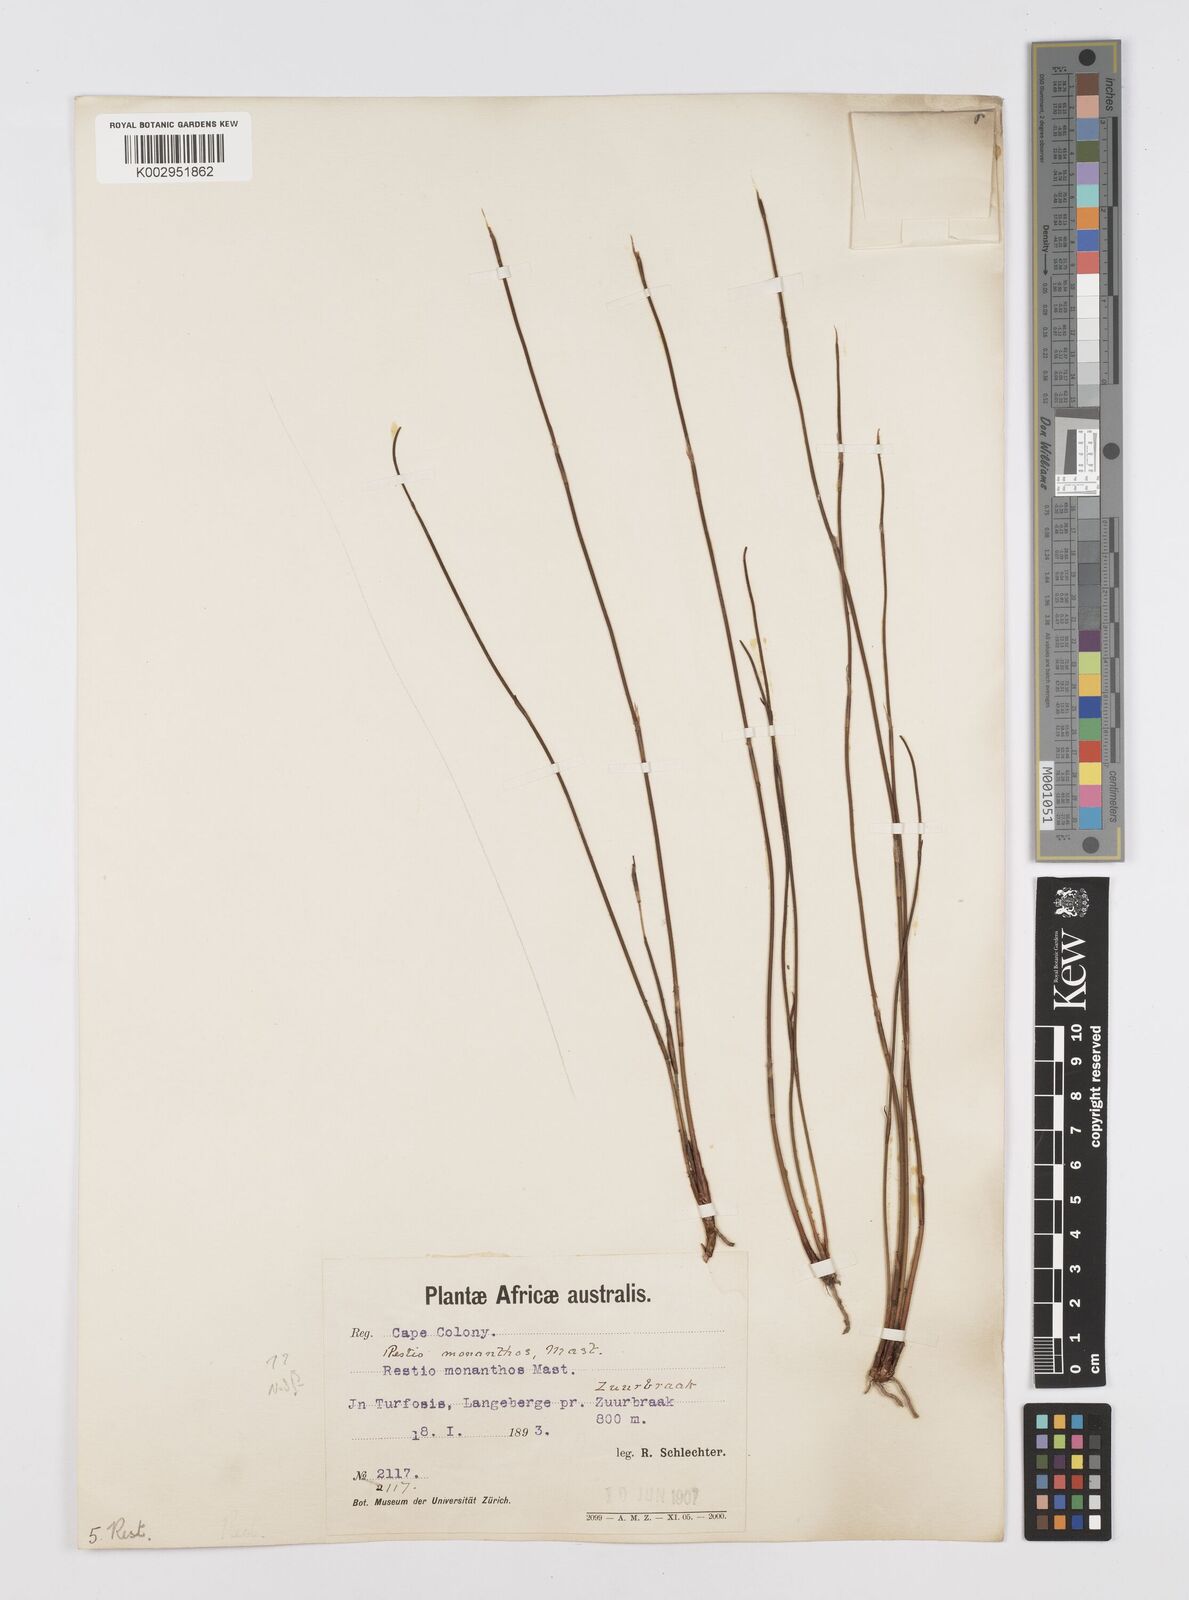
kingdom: Plantae
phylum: Tracheophyta
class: Liliopsida
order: Poales
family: Restionaceae
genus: Restio
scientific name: Restio
